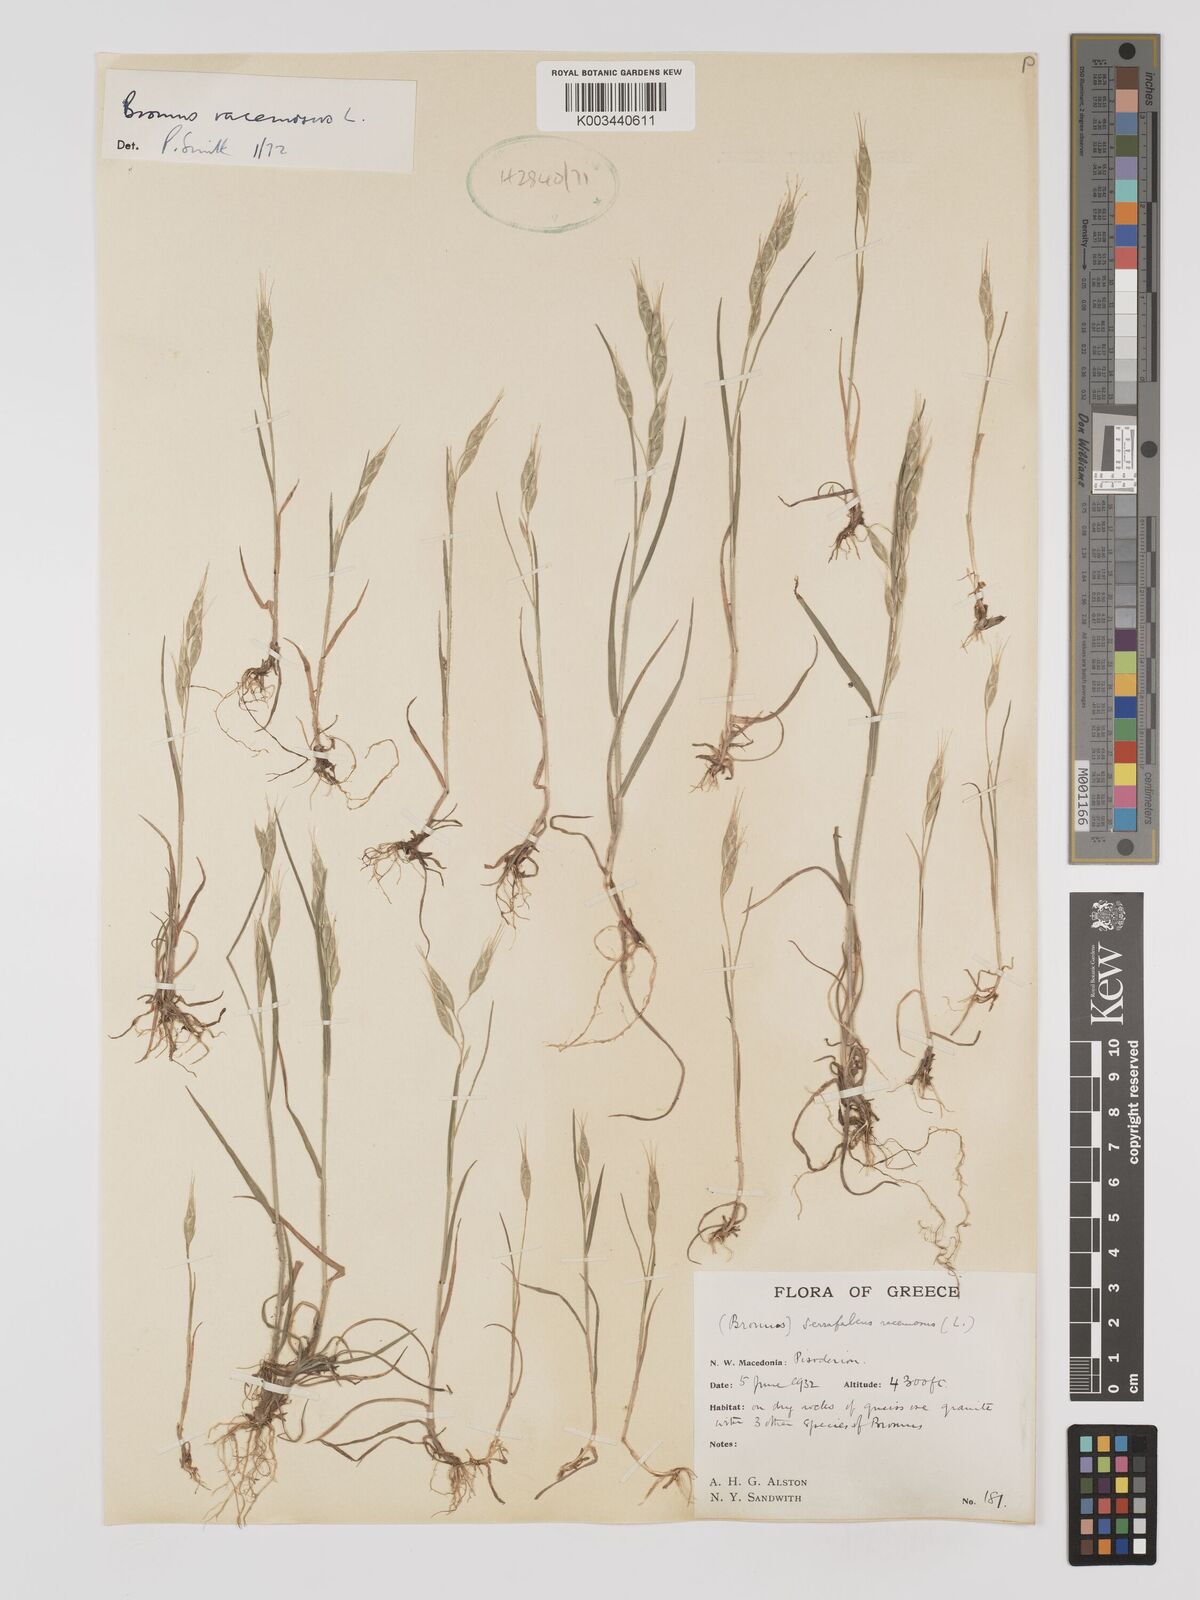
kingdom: Plantae
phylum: Tracheophyta
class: Liliopsida
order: Poales
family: Poaceae
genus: Bromus
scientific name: Bromus racemosus
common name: Bald brome
